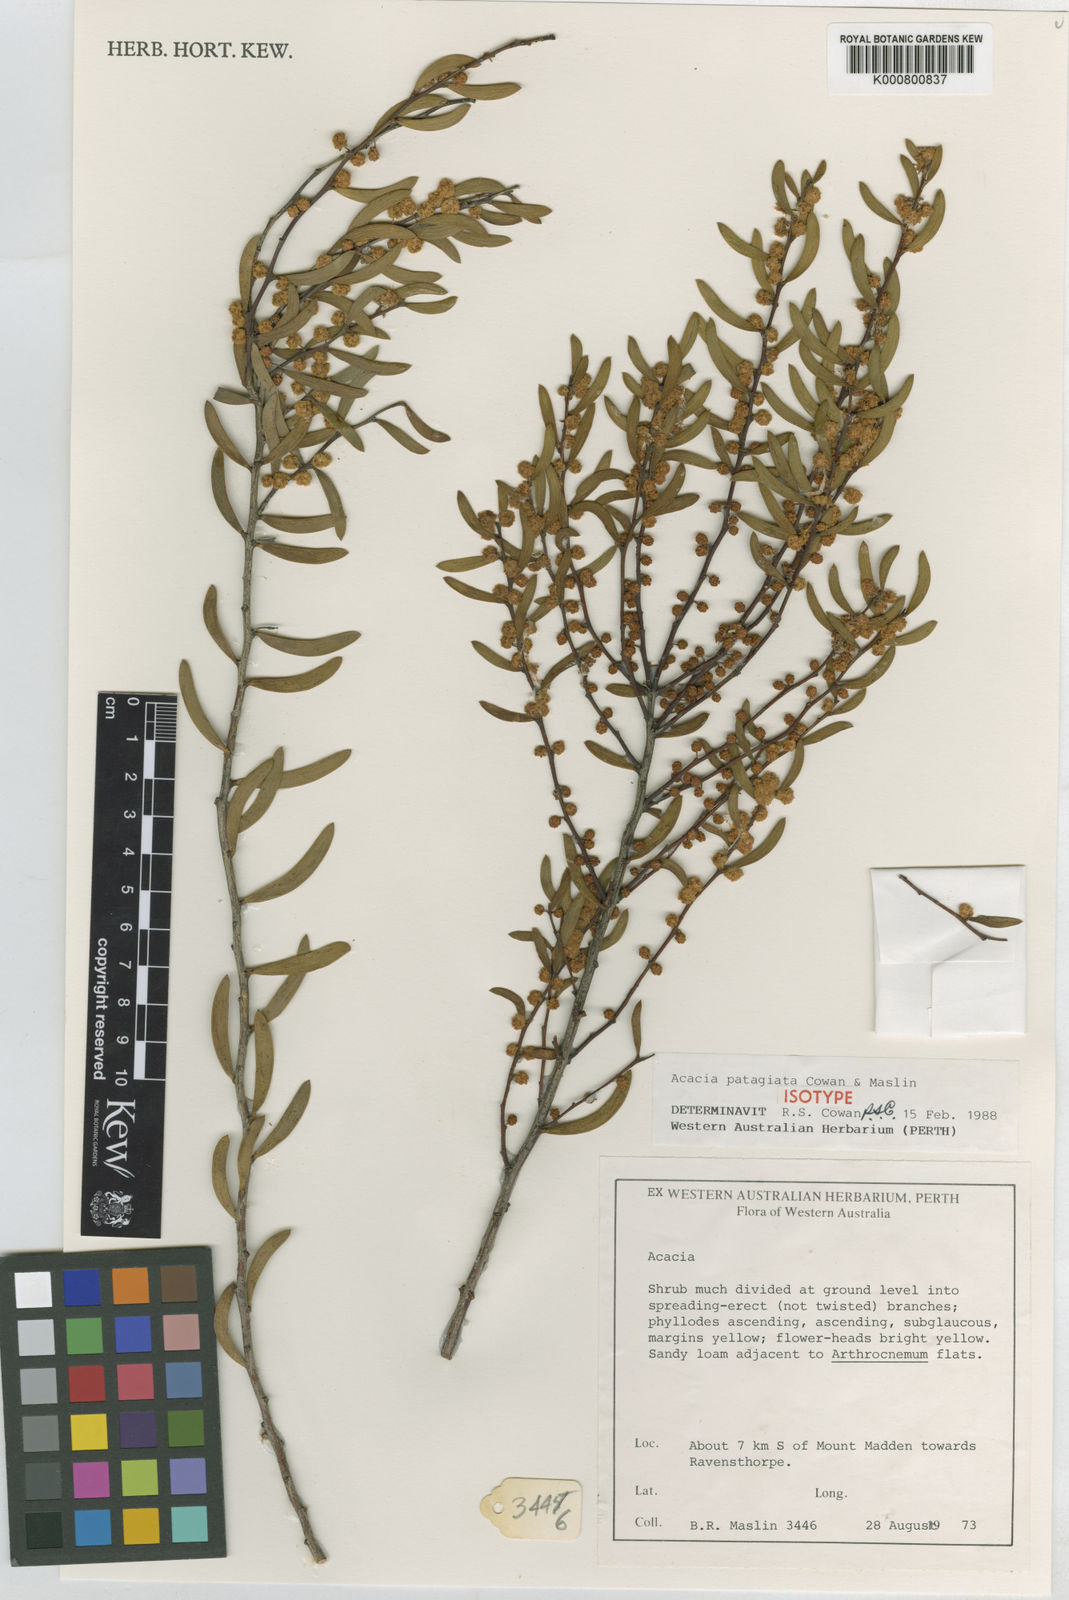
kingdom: Plantae
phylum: Tracheophyta
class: Magnoliopsida
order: Fabales
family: Fabaceae
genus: Acacia
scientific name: Acacia patagiata
